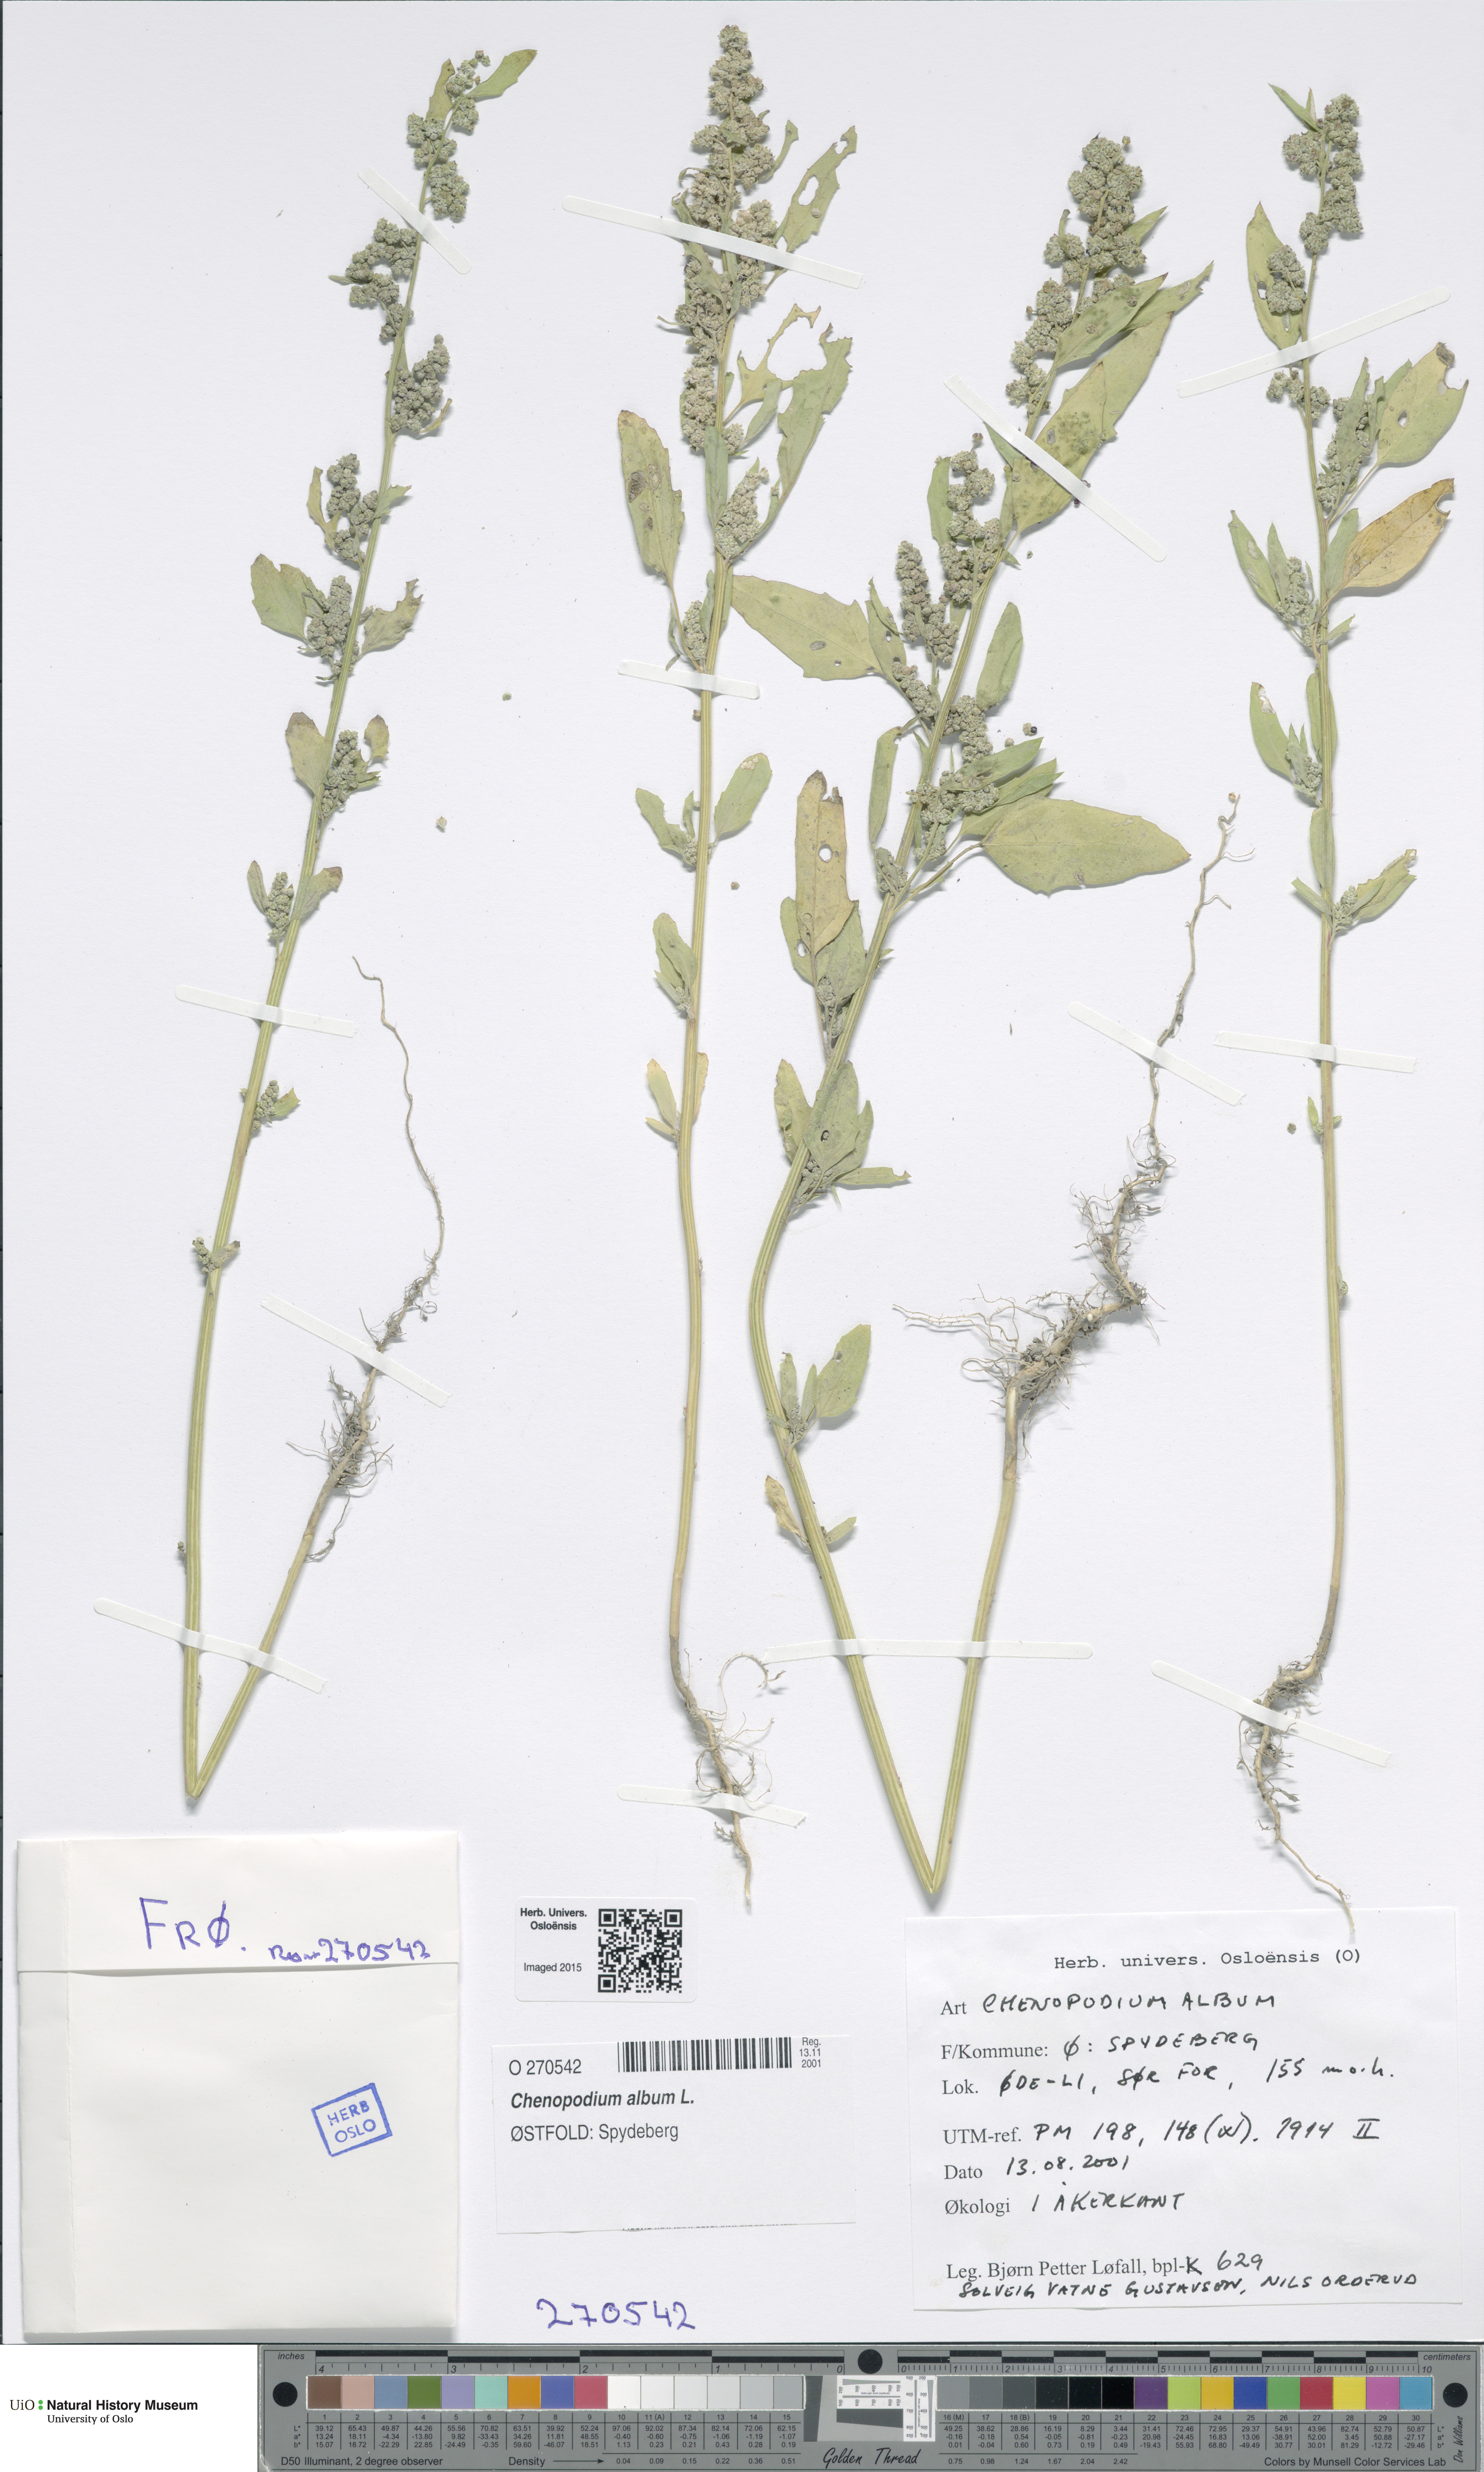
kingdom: Plantae
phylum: Tracheophyta
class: Magnoliopsida
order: Caryophyllales
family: Amaranthaceae
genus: Chenopodium
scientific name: Chenopodium album
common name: Fat-hen
